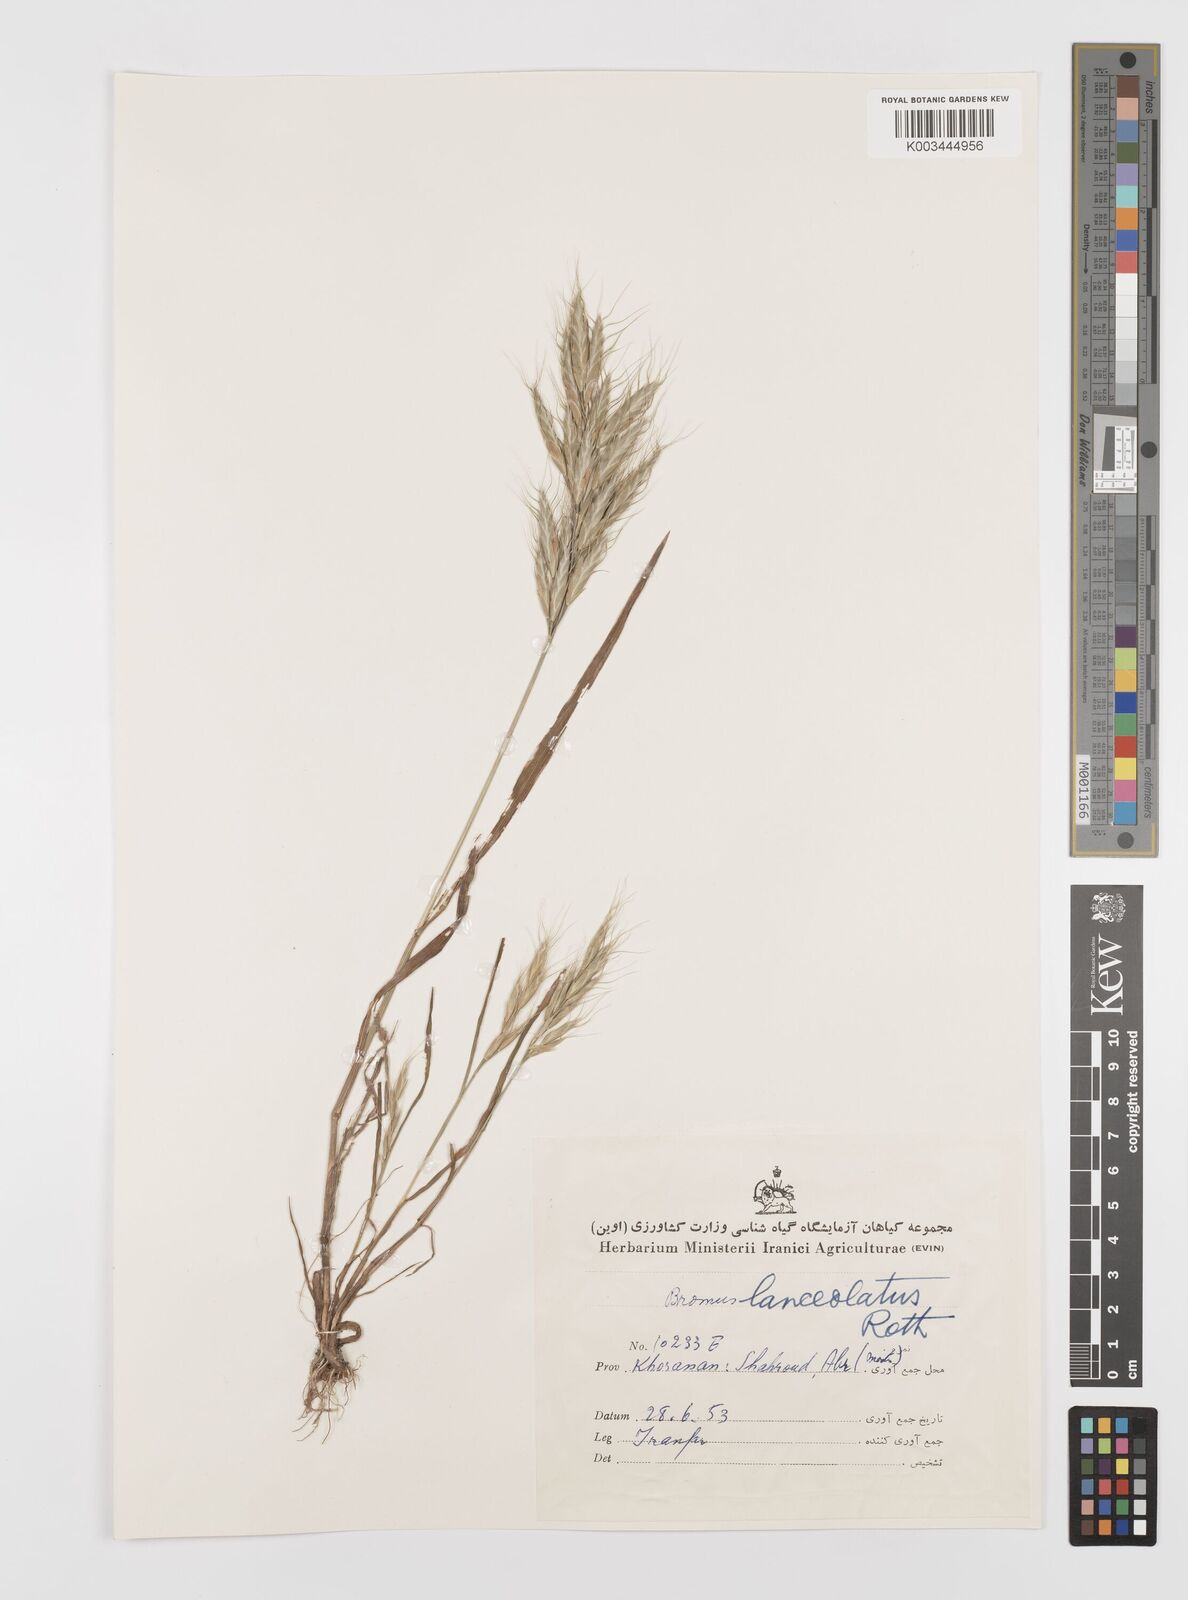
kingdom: Plantae
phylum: Tracheophyta
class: Liliopsida
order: Poales
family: Poaceae
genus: Bromus
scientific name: Bromus lanceolatus
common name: Mediterranean brome
